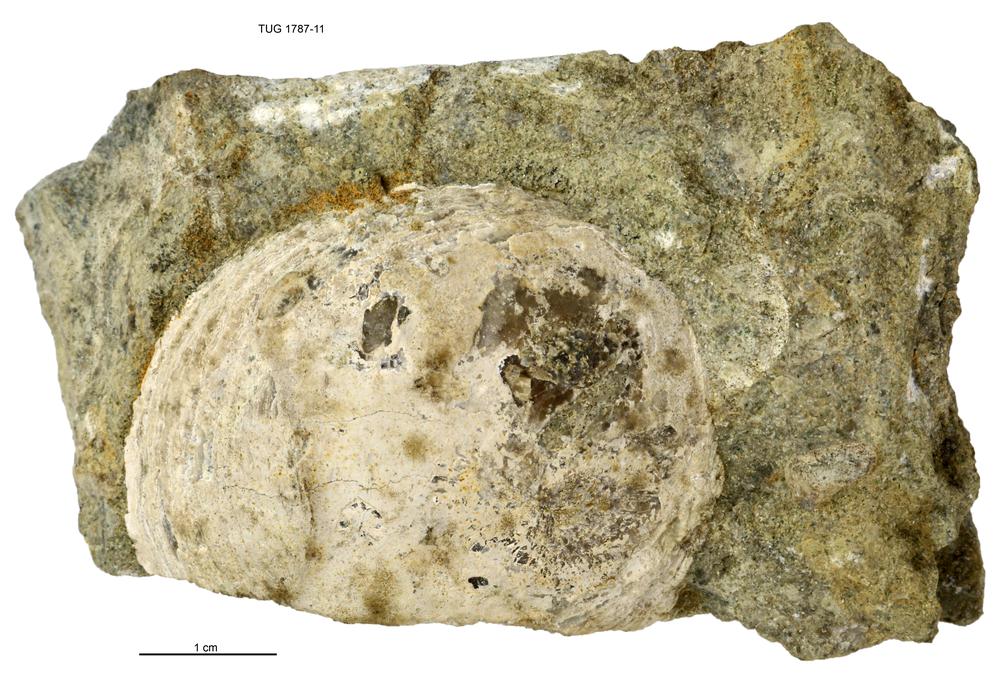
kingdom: Animalia
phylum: Mollusca
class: Monoplacophora
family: Metoptomatidae
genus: Metoptoma
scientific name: Metoptoma
